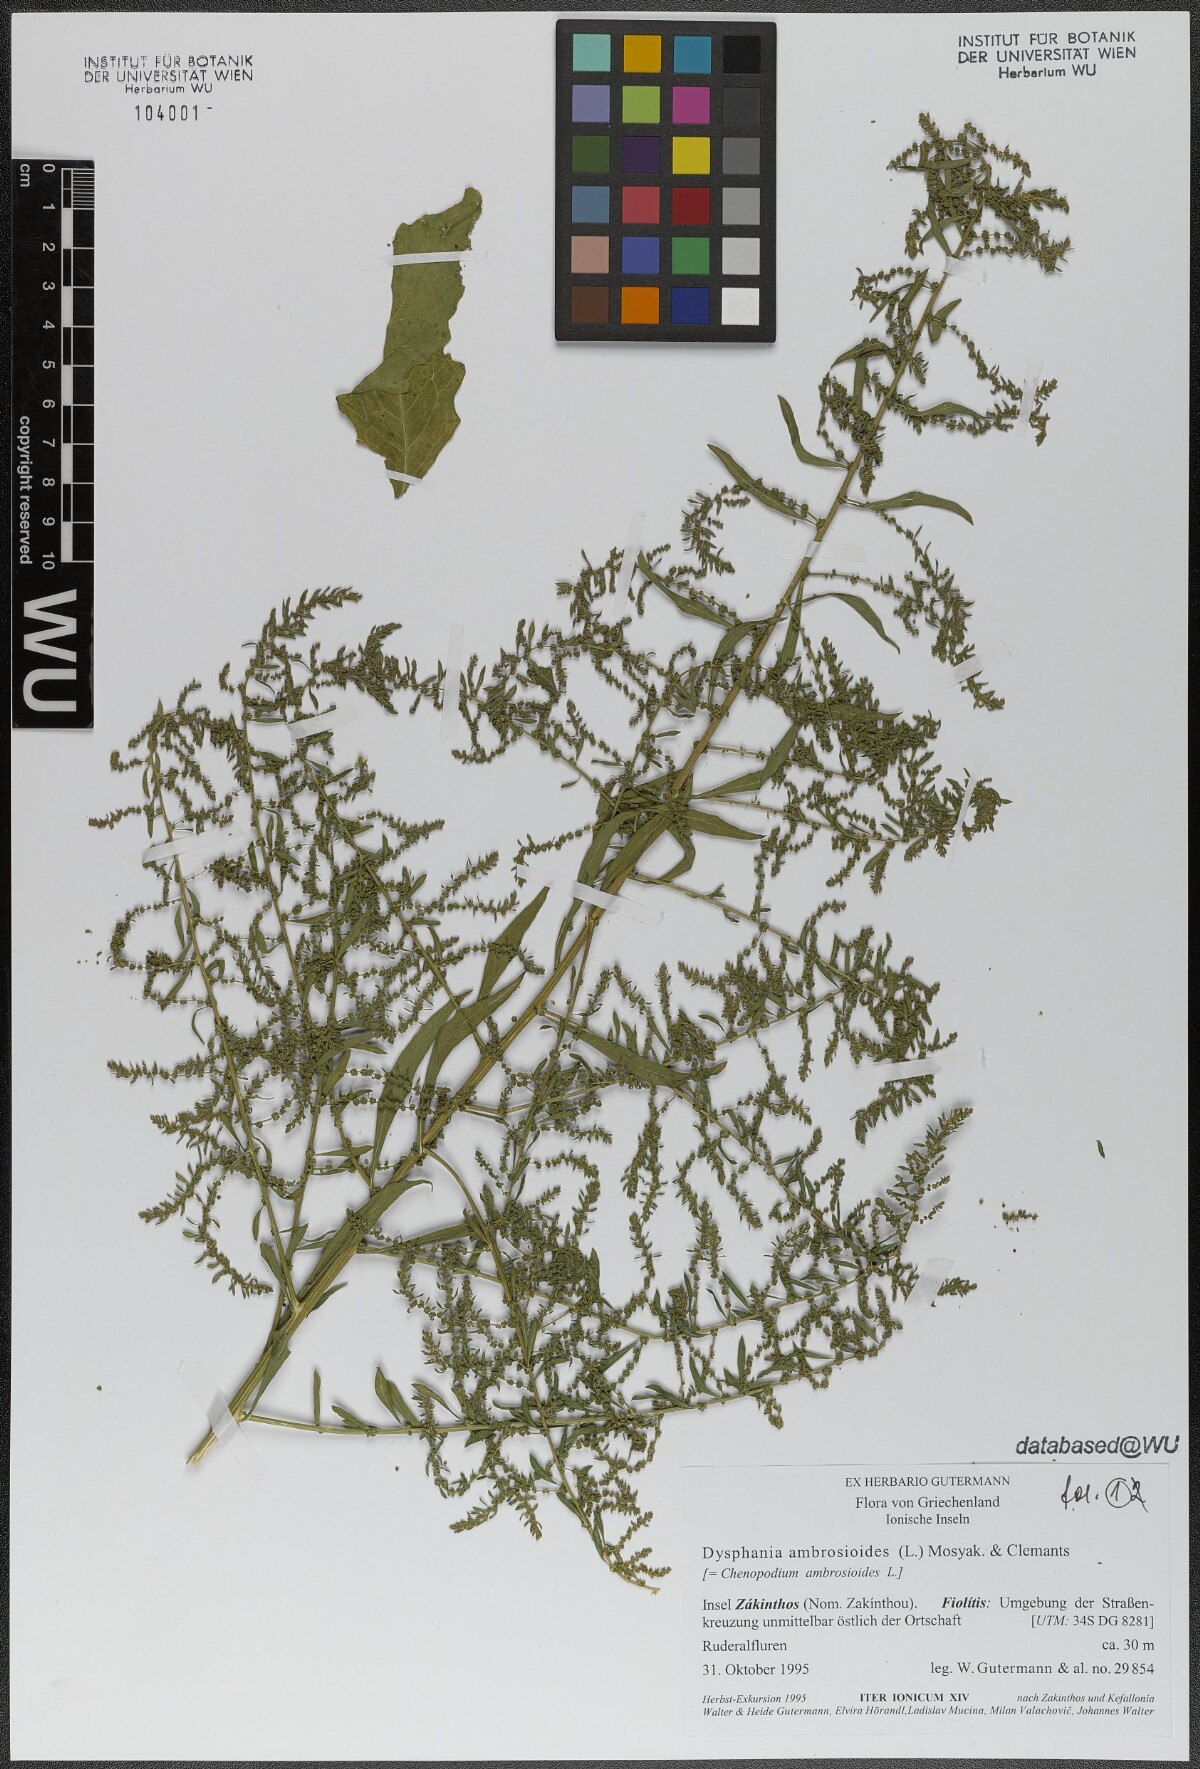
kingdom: Plantae
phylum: Tracheophyta
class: Magnoliopsida
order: Caryophyllales
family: Amaranthaceae
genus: Dysphania
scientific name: Dysphania ambrosioides
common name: Wormseed
